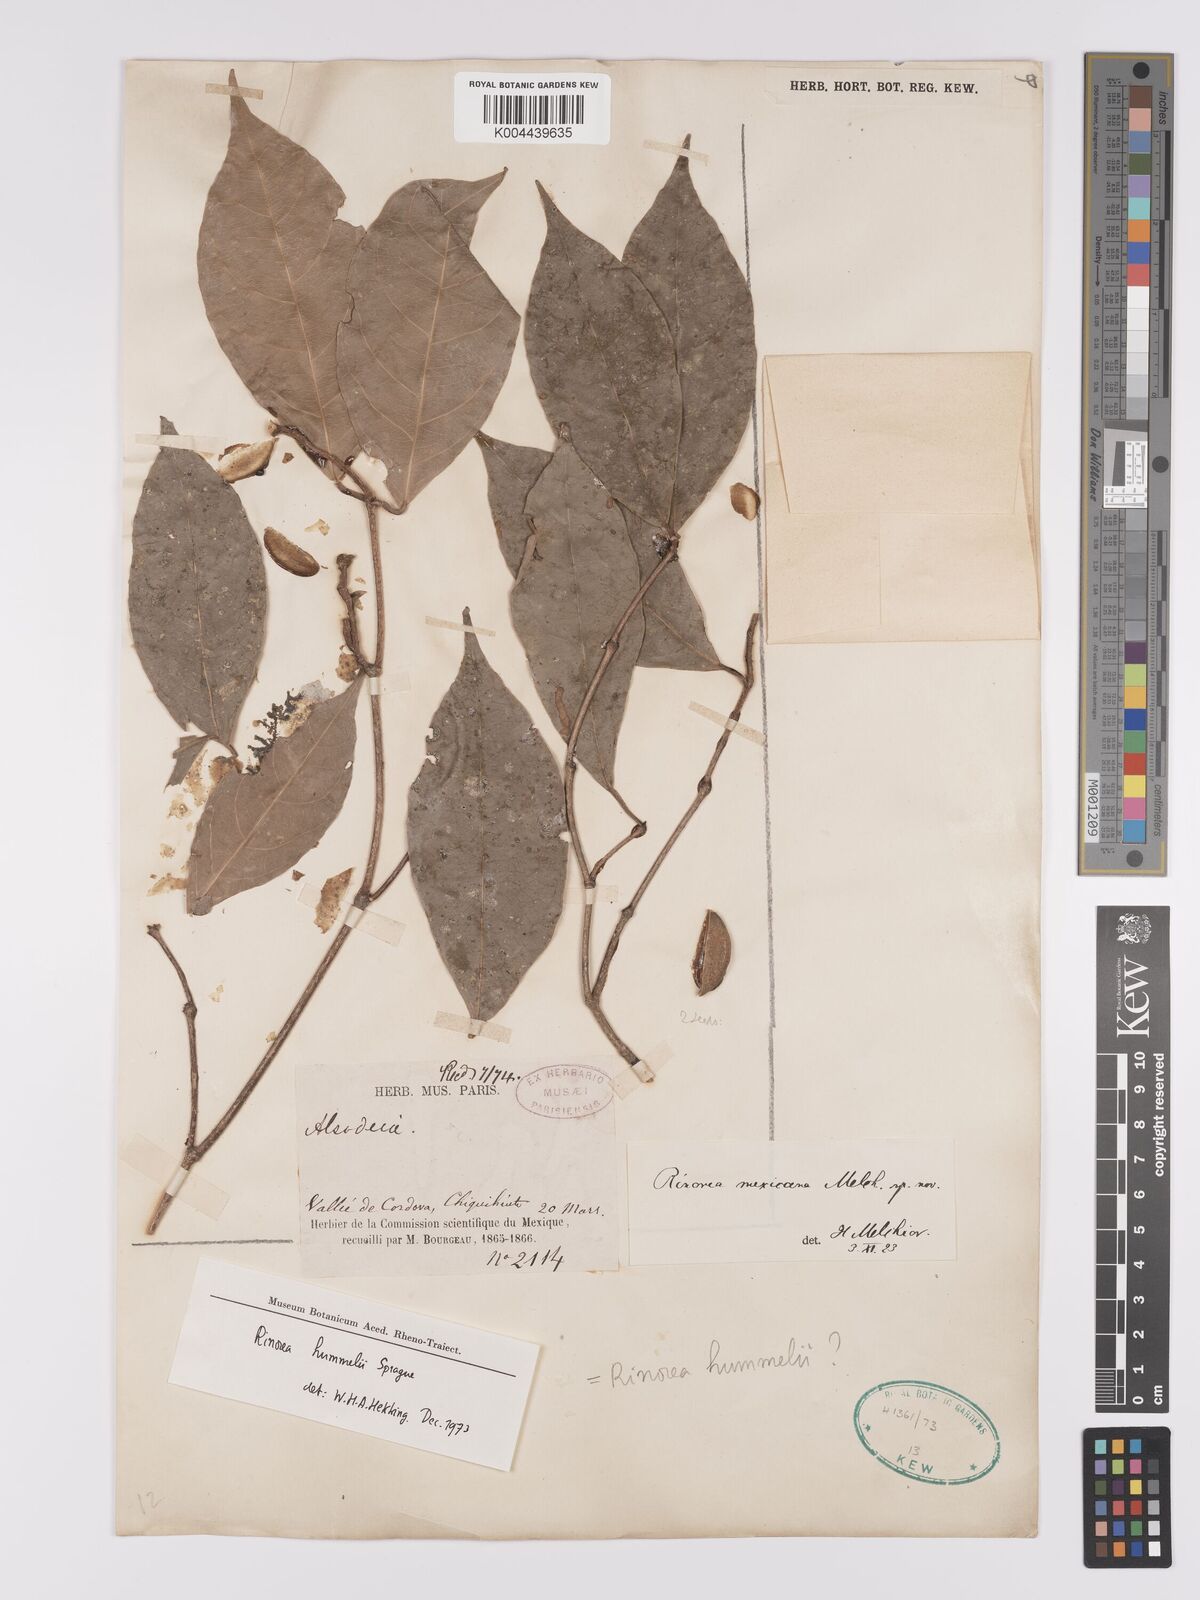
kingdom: Plantae
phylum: Tracheophyta
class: Magnoliopsida
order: Malpighiales
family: Violaceae
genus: Rinorea
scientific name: Rinorea hummelii
